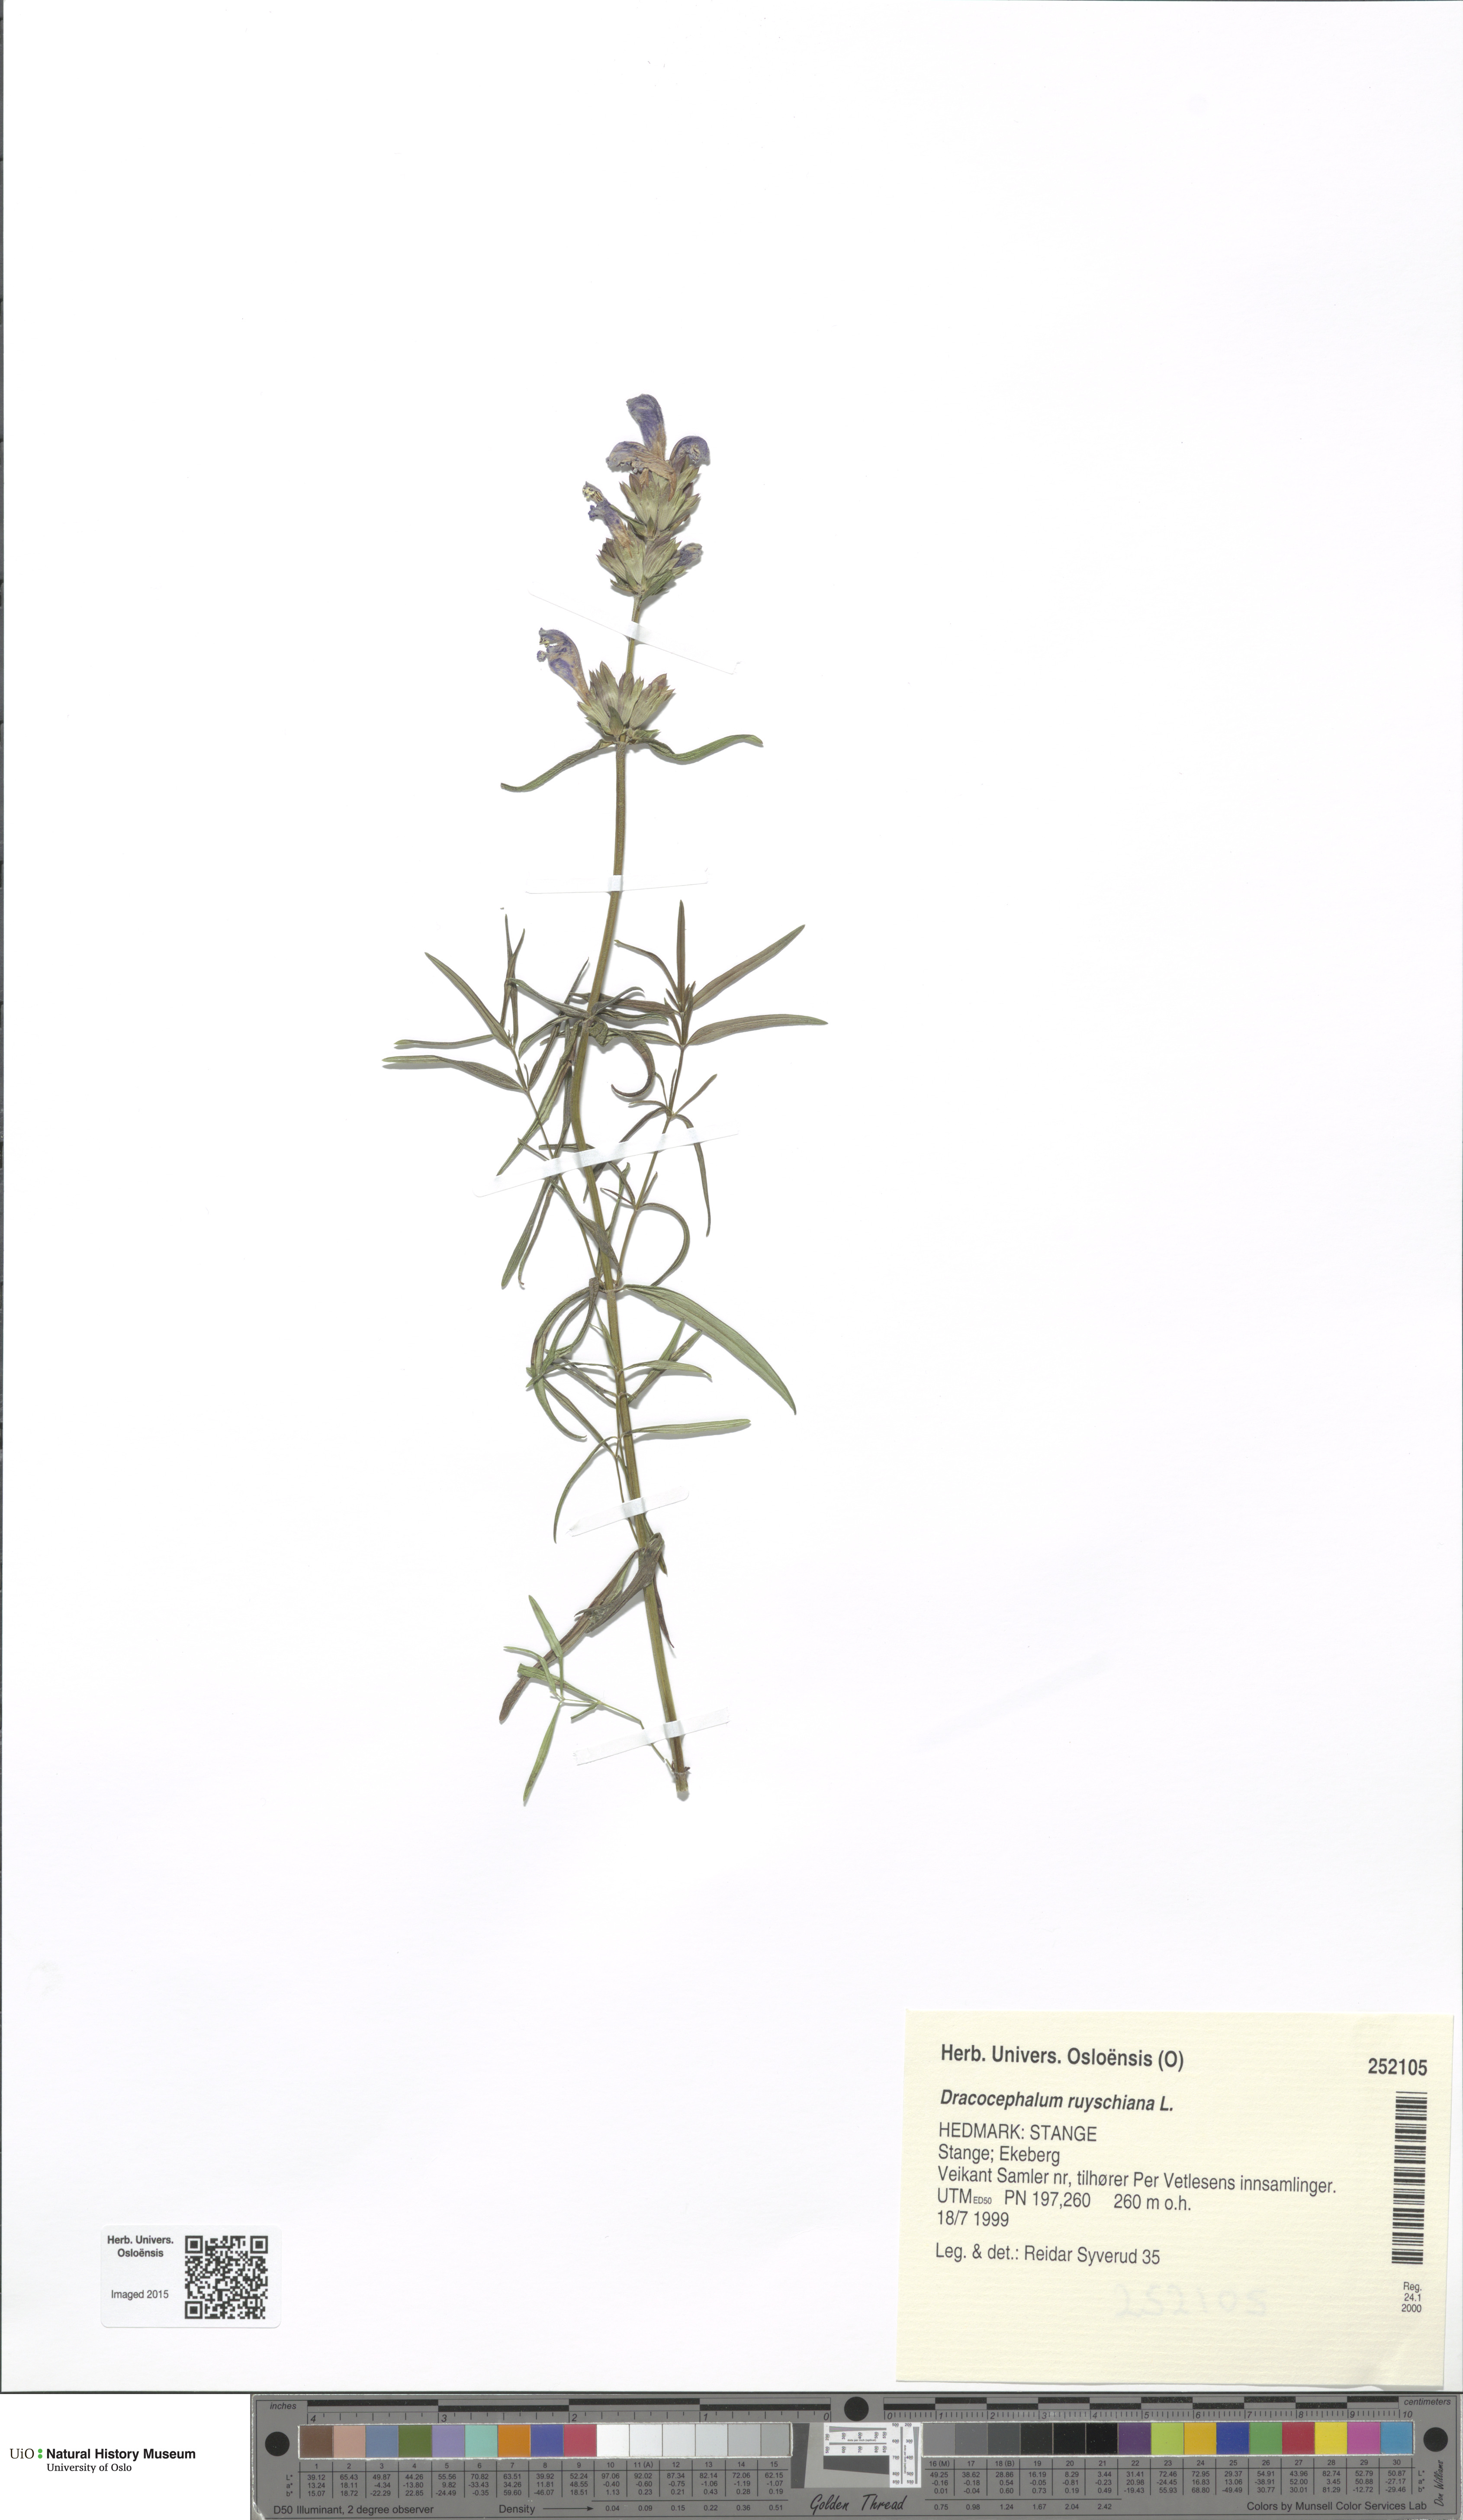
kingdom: Plantae
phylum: Tracheophyta
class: Magnoliopsida
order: Lamiales
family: Lamiaceae
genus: Dracocephalum
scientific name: Dracocephalum ruyschiana
